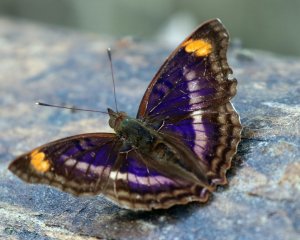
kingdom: Animalia
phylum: Arthropoda
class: Insecta
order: Lepidoptera
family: Nymphalidae
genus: Doxocopa
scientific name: Doxocopa pavon
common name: Pavon Emperor
